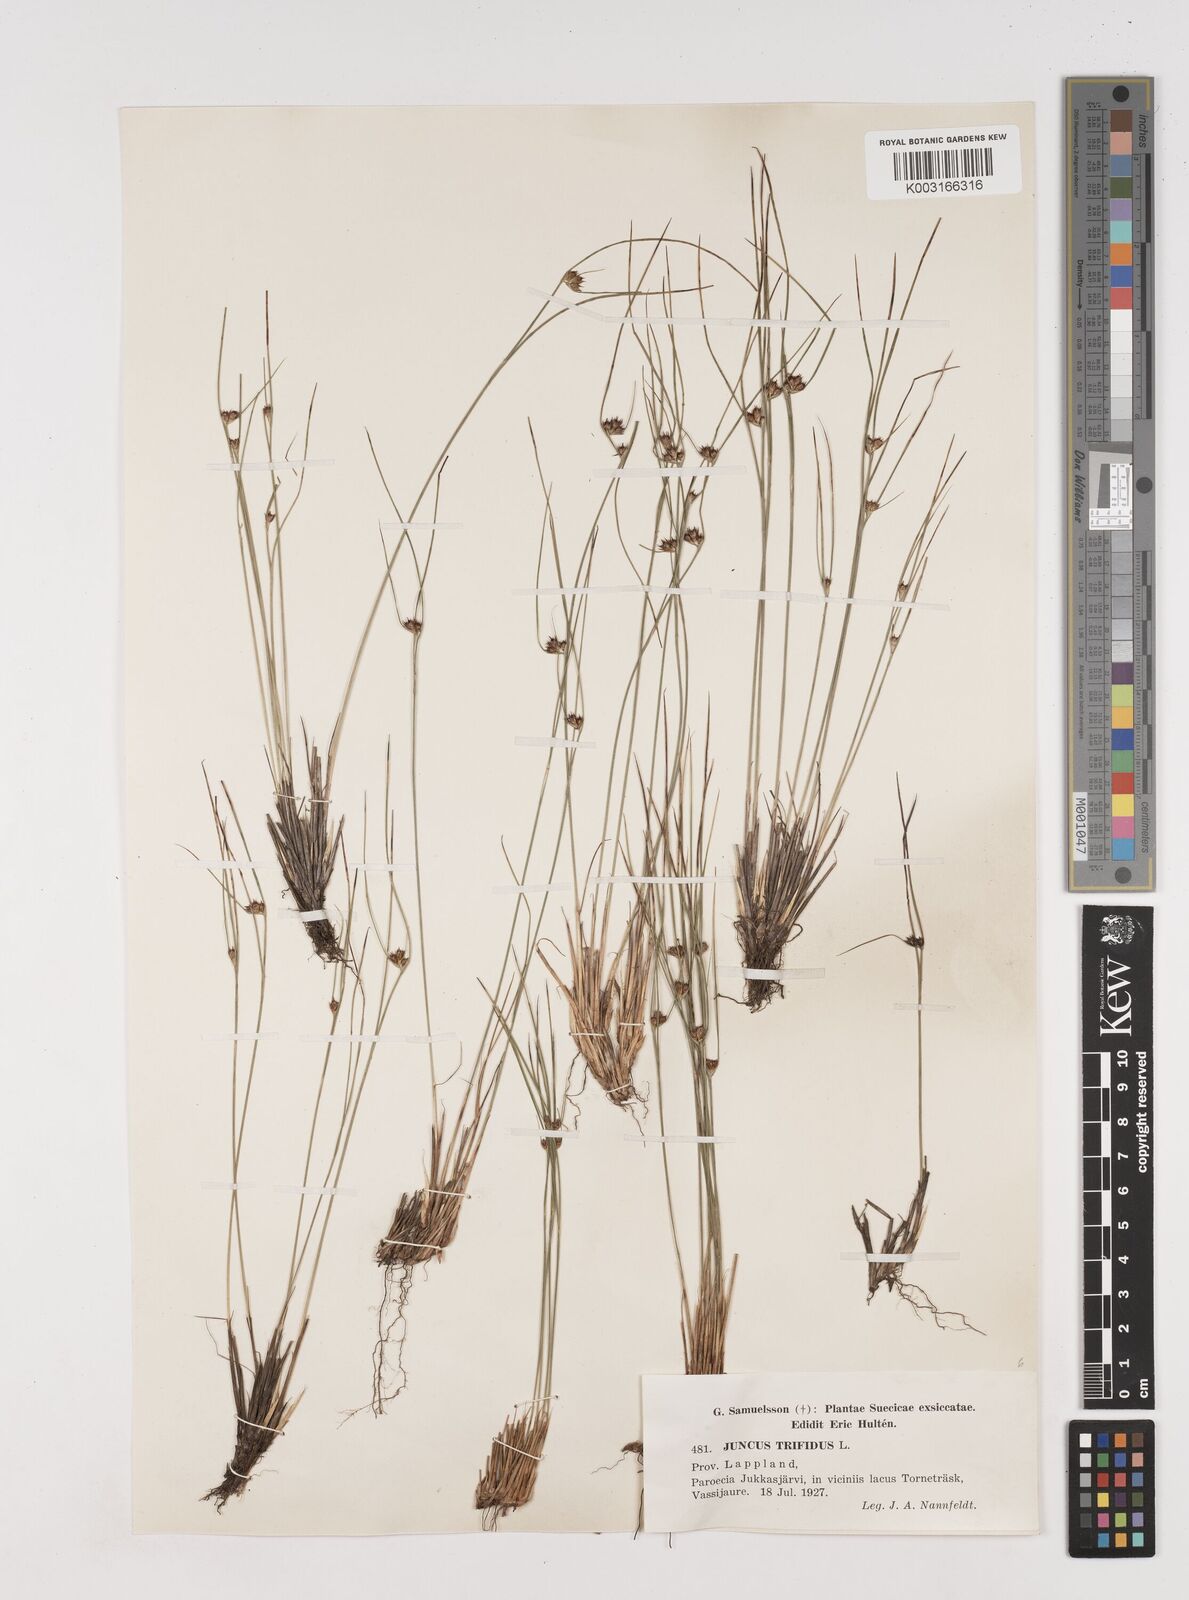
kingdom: Plantae
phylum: Tracheophyta
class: Liliopsida
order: Poales
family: Juncaceae
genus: Oreojuncus
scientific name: Oreojuncus trifidus
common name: Highland rush
